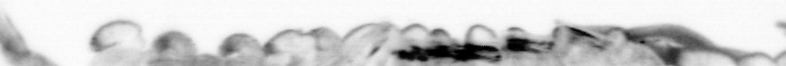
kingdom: Animalia
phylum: Arthropoda
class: Copepoda
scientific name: Copepoda
